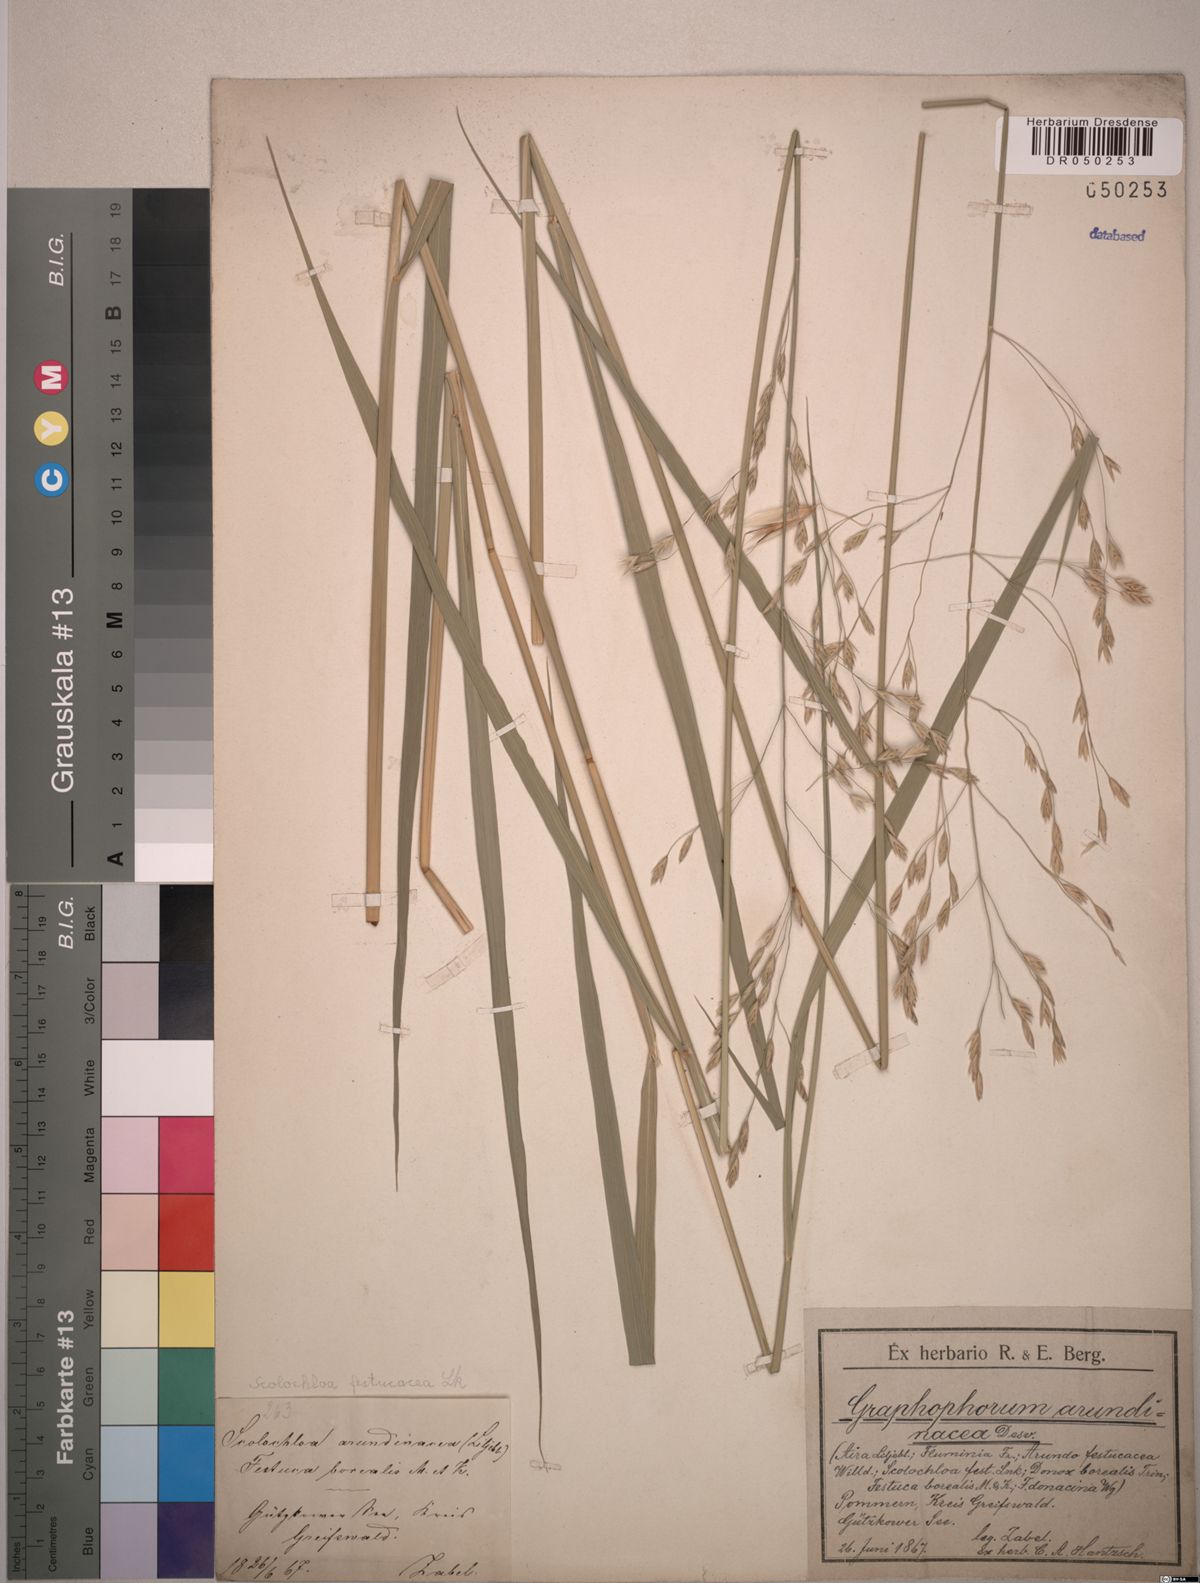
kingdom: Plantae
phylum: Tracheophyta
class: Liliopsida
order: Poales
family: Poaceae
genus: Scolochloa
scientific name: Scolochloa festucacea
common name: Common rivergrass
